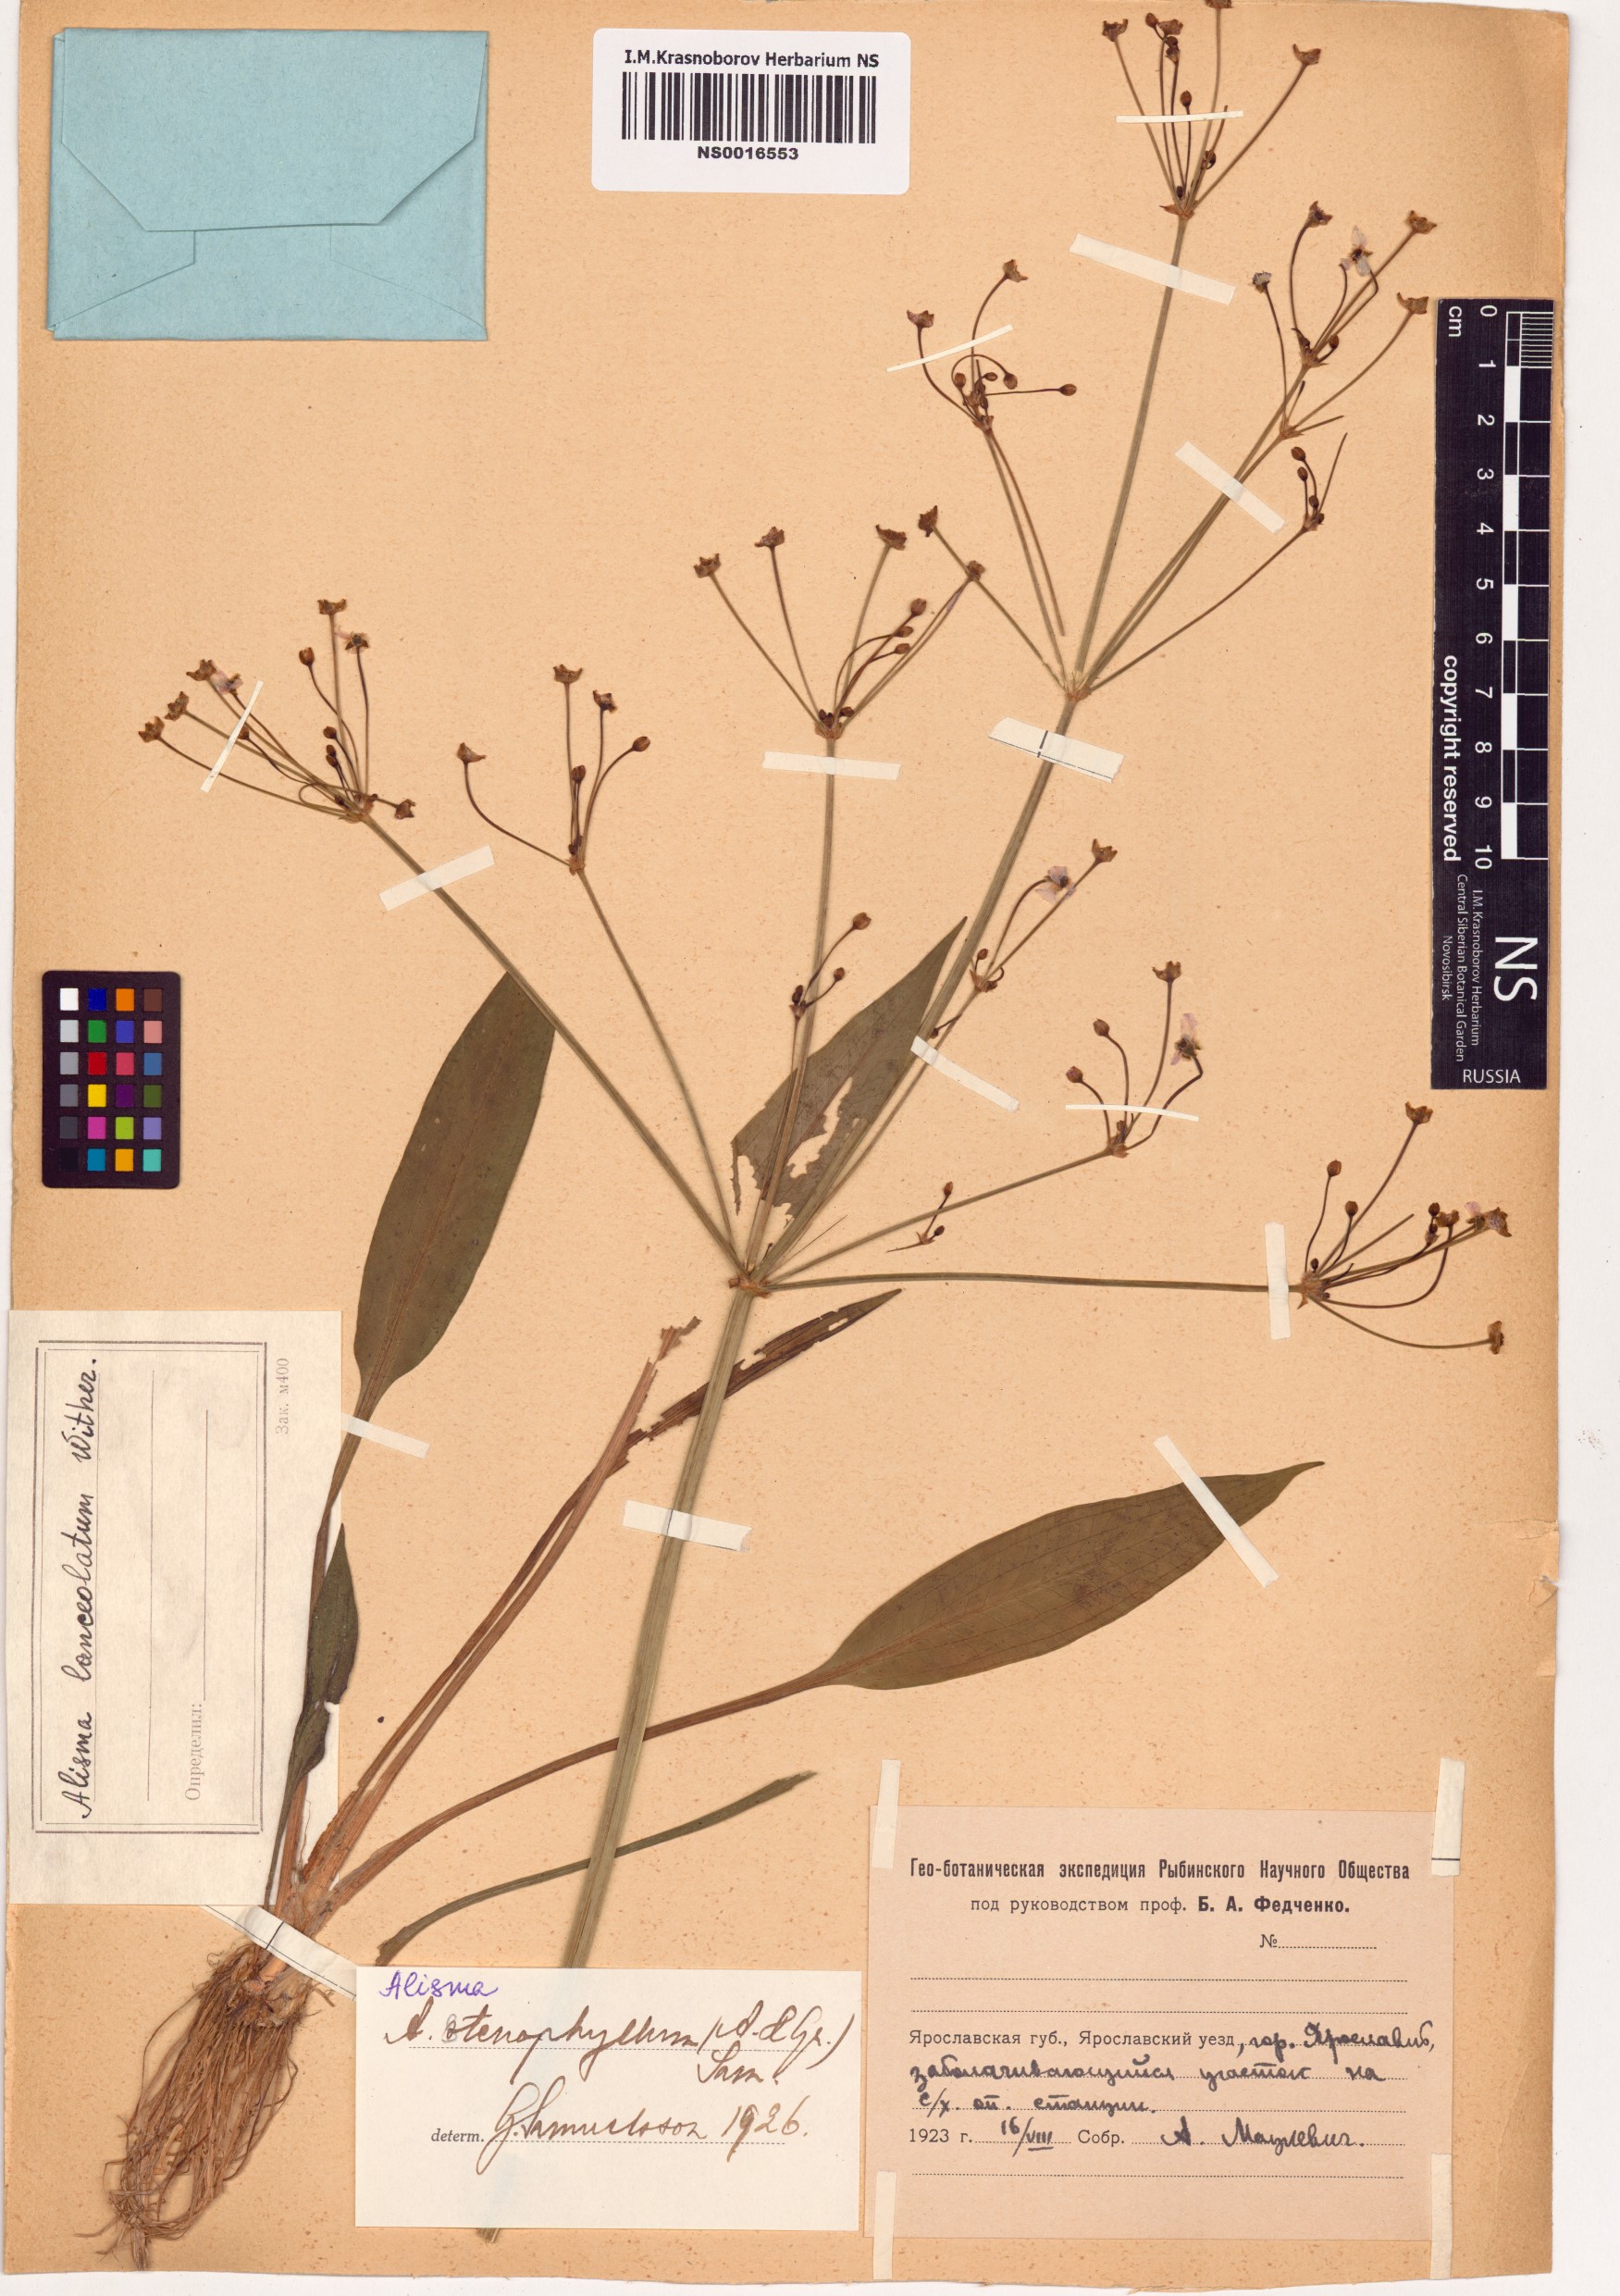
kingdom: Plantae
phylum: Tracheophyta
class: Liliopsida
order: Alismatales
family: Alismataceae
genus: Alisma
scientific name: Alisma lanceolatum
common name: Narrow-leaved water-plantain
